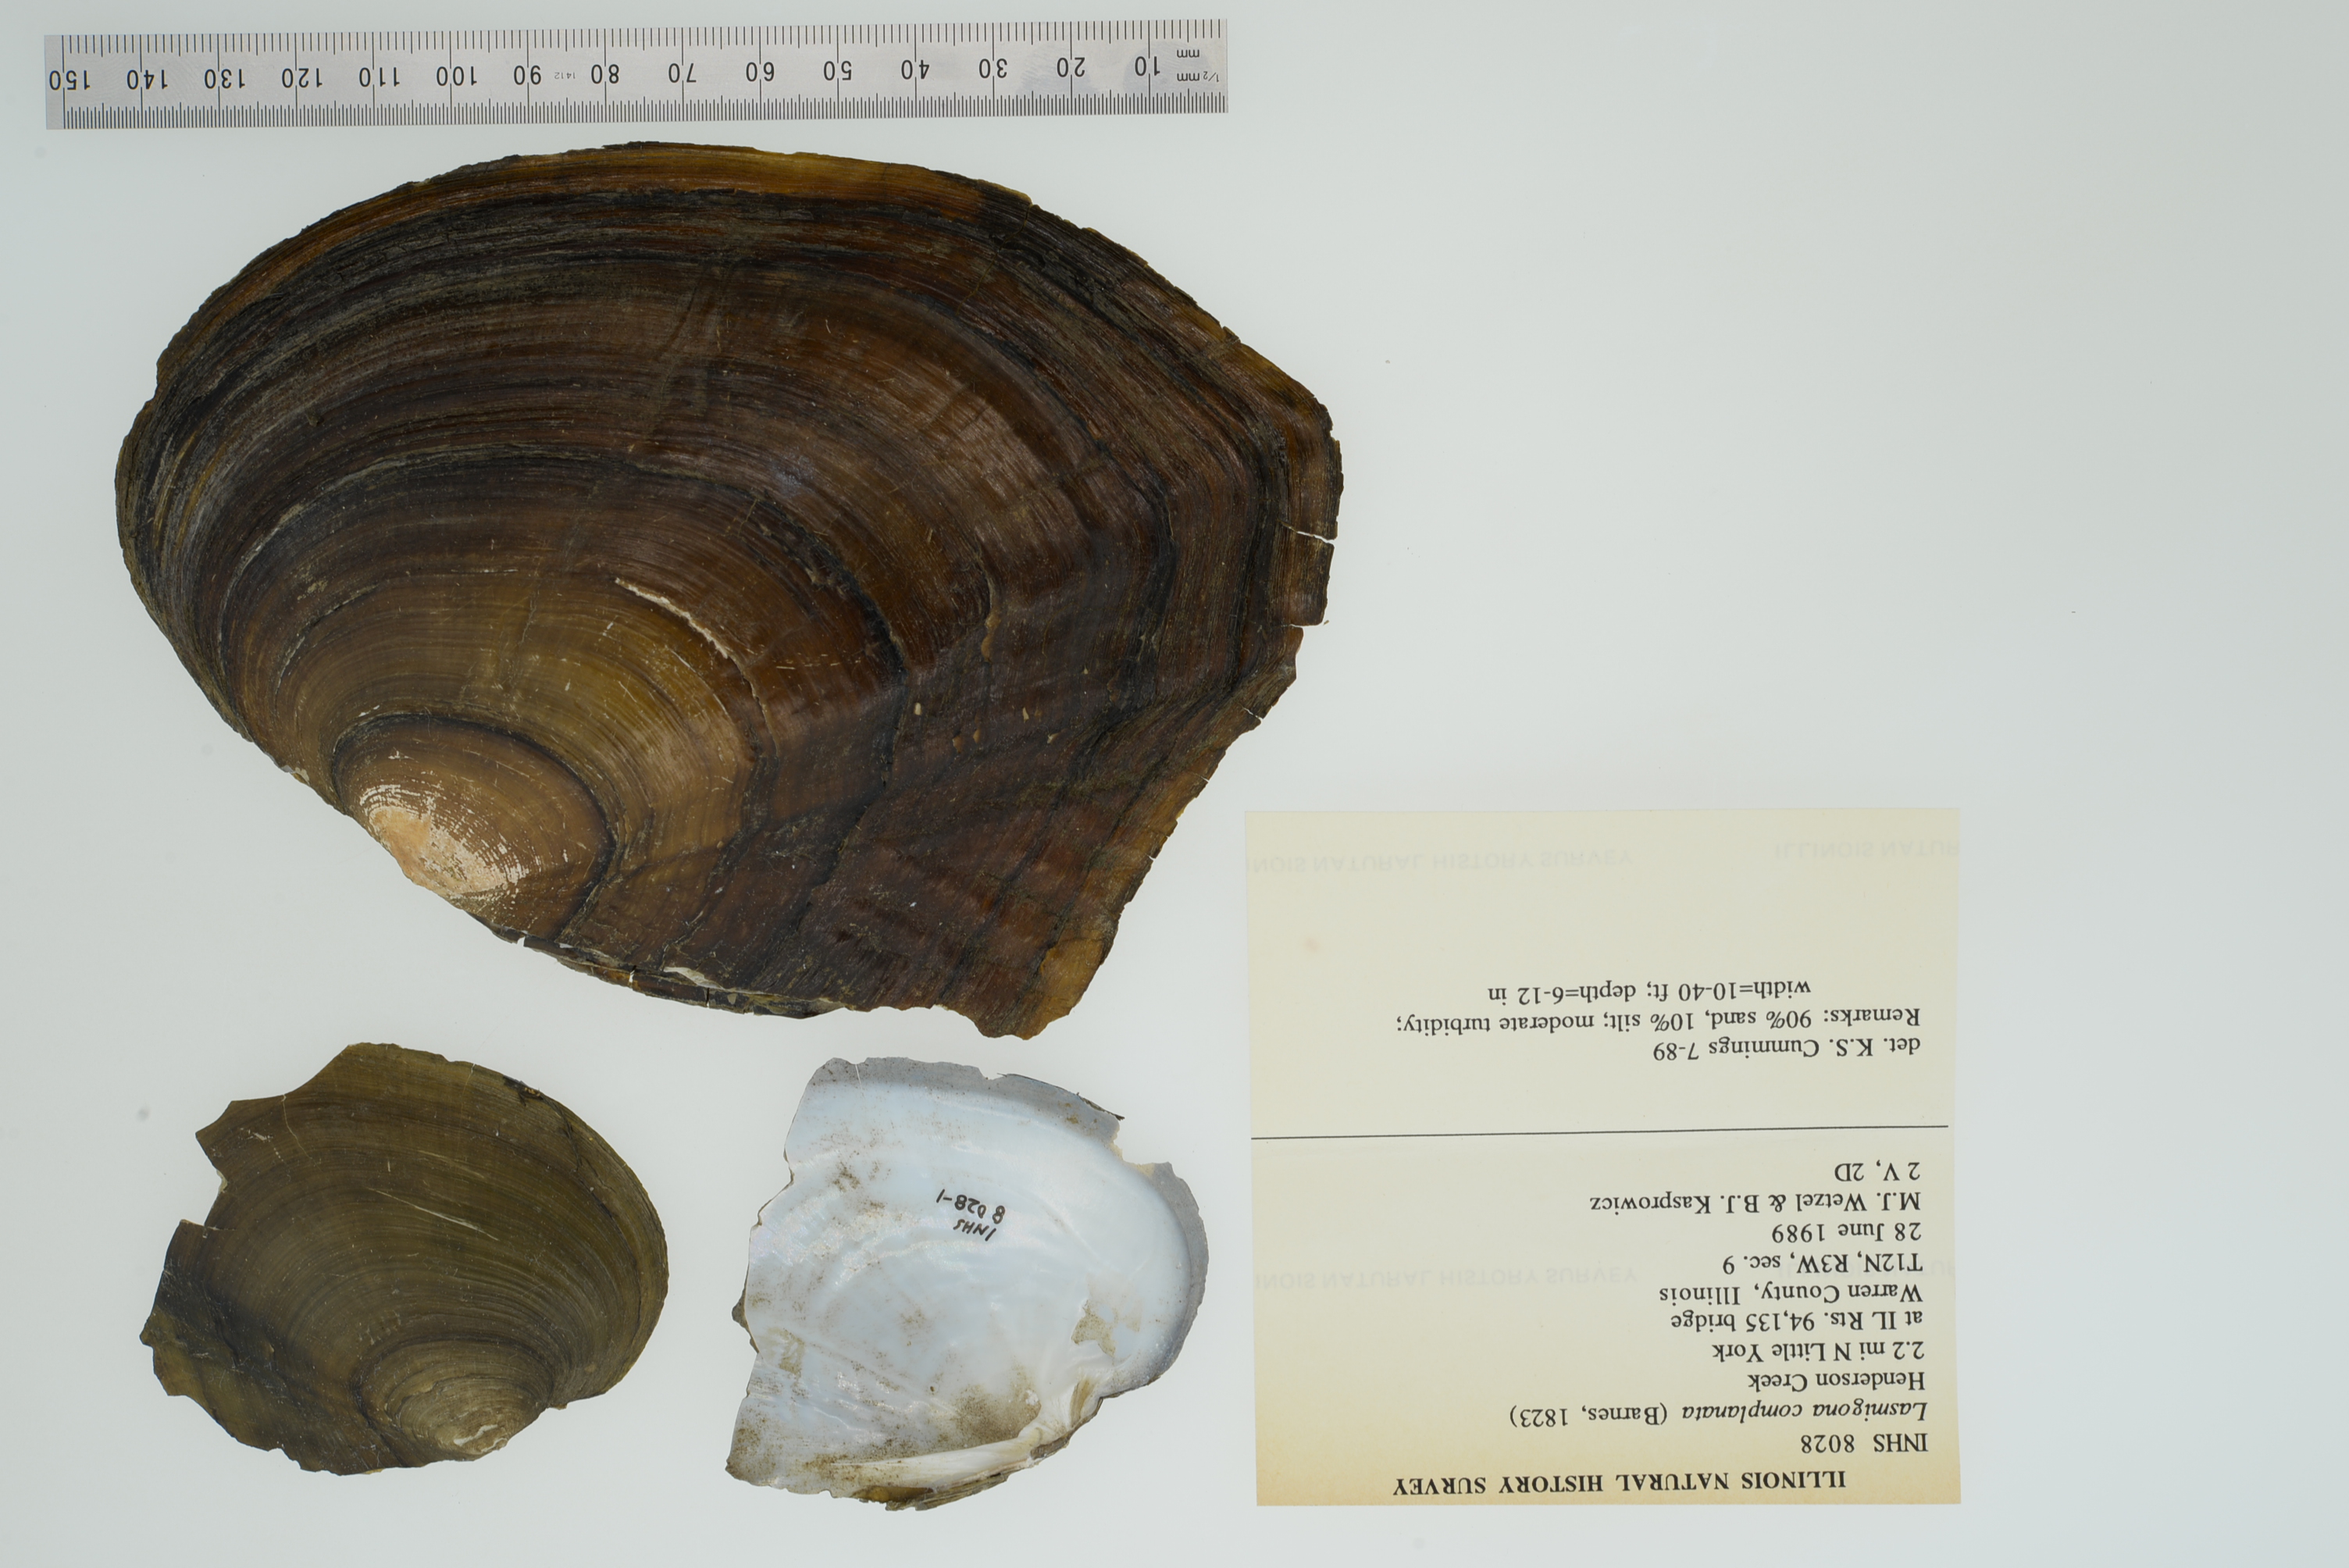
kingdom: Animalia
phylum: Mollusca
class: Bivalvia
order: Unionida
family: Unionidae
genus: Lasmigona
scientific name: Lasmigona complanata
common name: White heelsplitter
